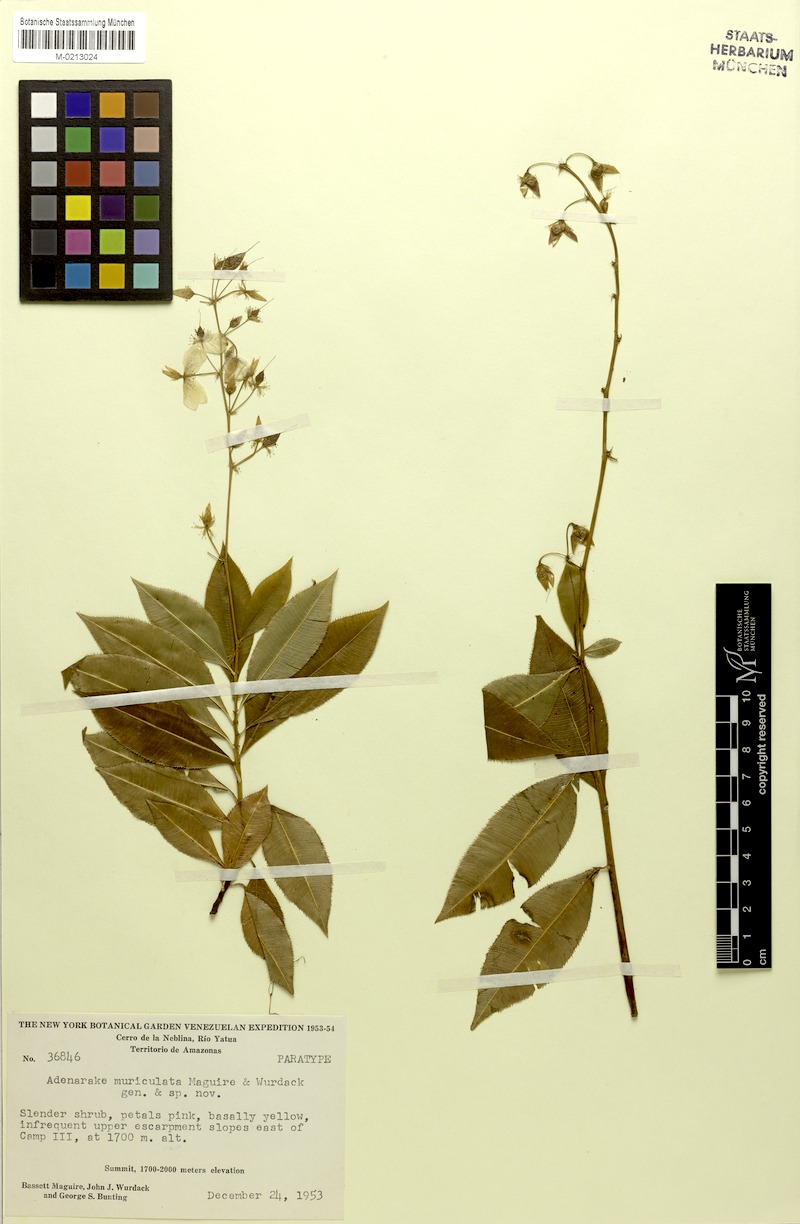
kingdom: Plantae
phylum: Tracheophyta
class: Magnoliopsida
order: Malpighiales
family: Ochnaceae
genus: Sauvagesia
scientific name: Sauvagesia muriculata
